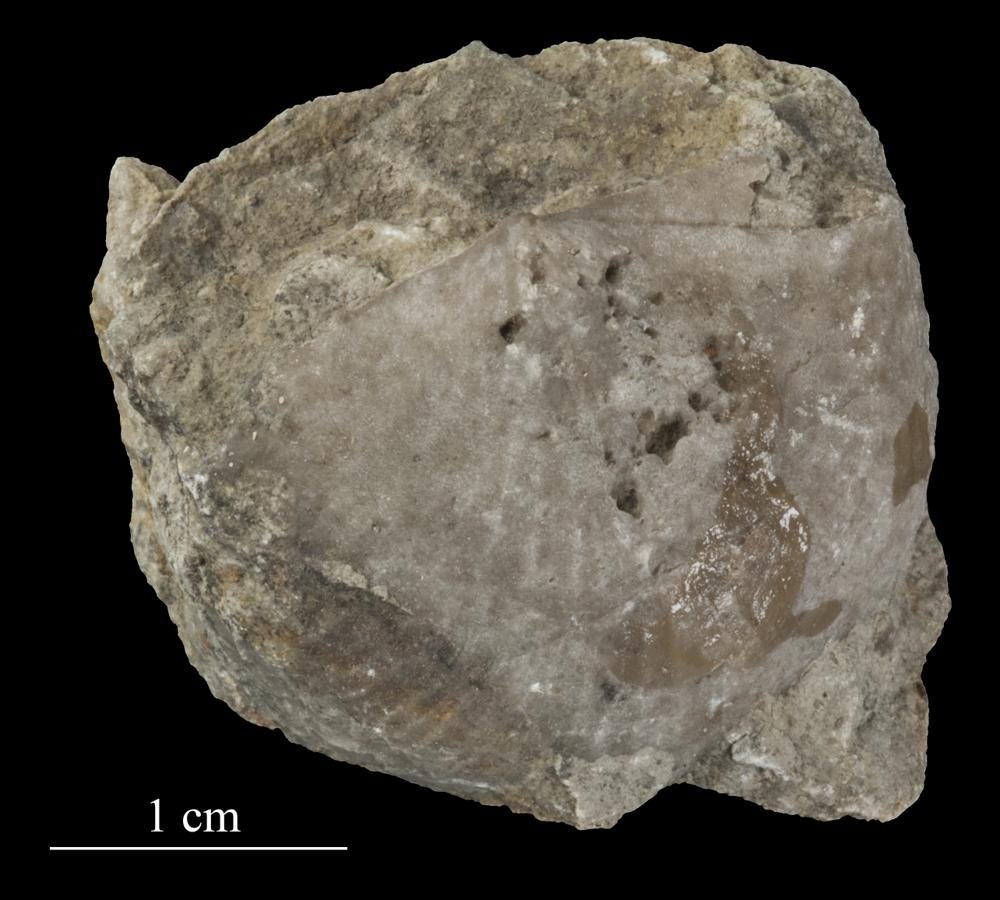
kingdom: Animalia
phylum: Brachiopoda
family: Strophomenidae
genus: Tallinnites
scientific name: Tallinnites Oepikina imbrexoidea
